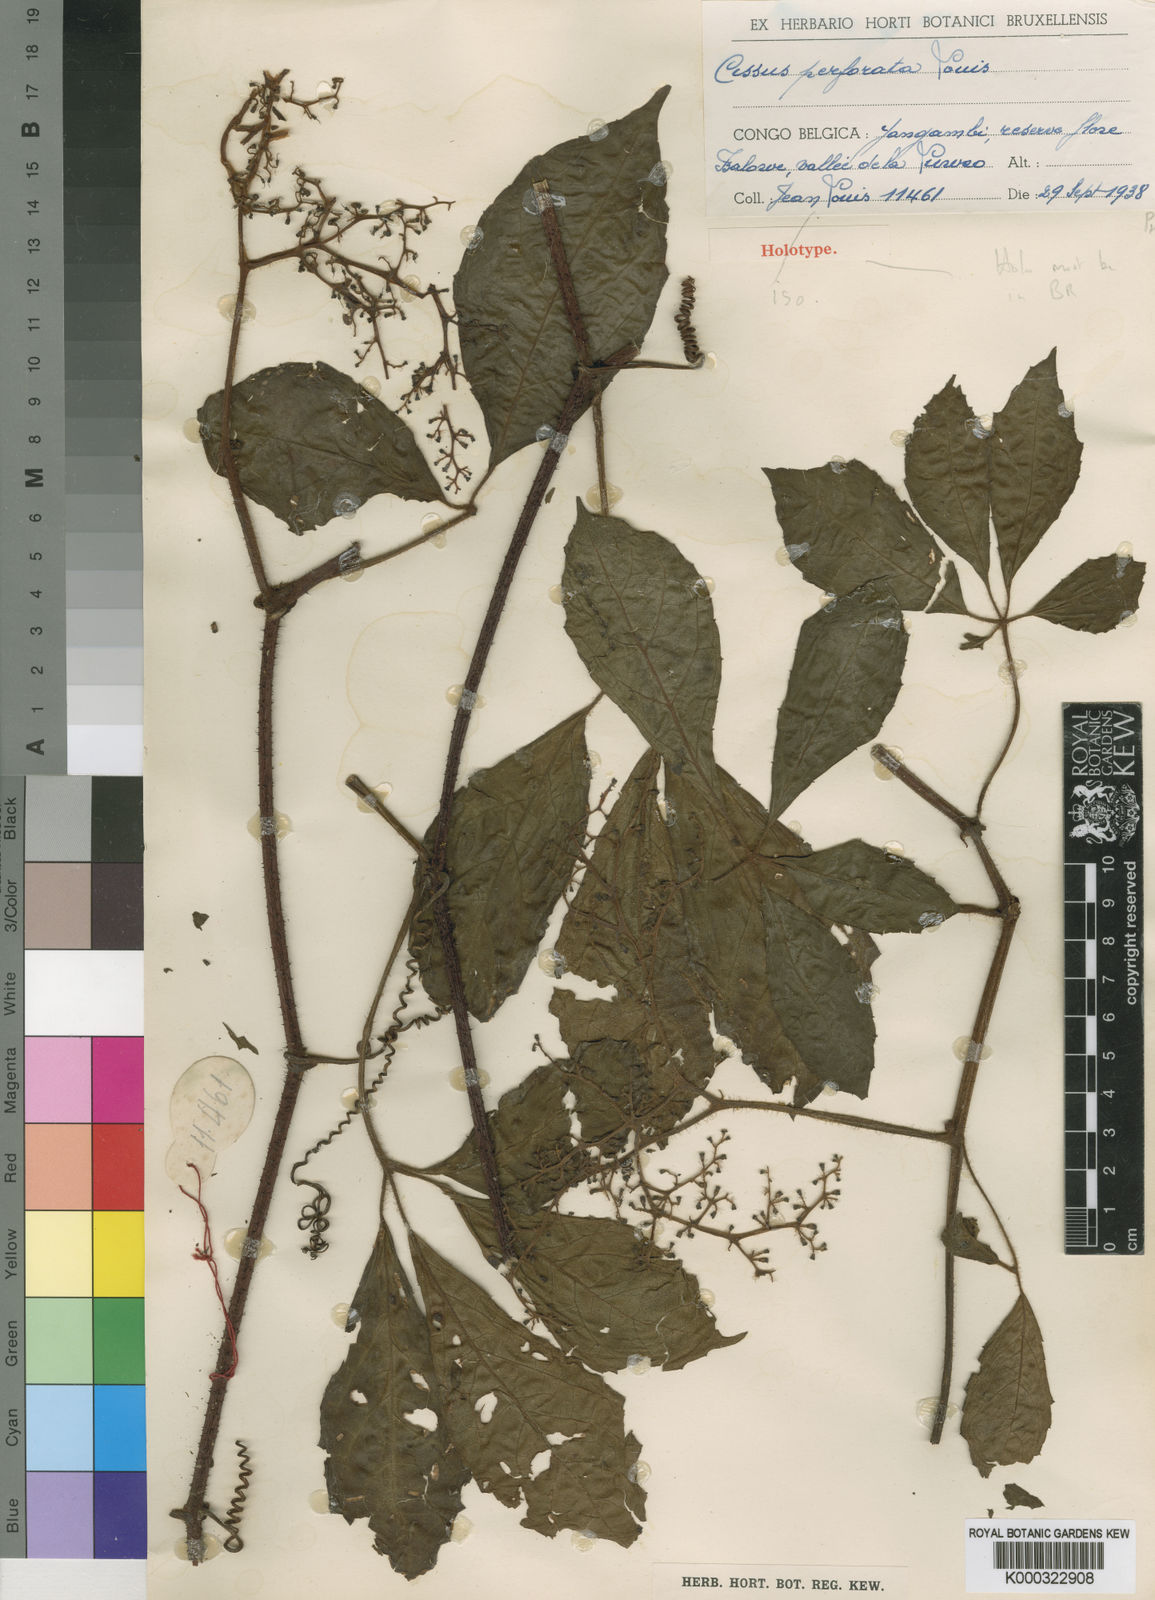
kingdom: Plantae
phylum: Tracheophyta
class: Magnoliopsida
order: Vitales
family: Vitaceae
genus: Cyphostemma
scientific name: Cyphostemma perforatum
